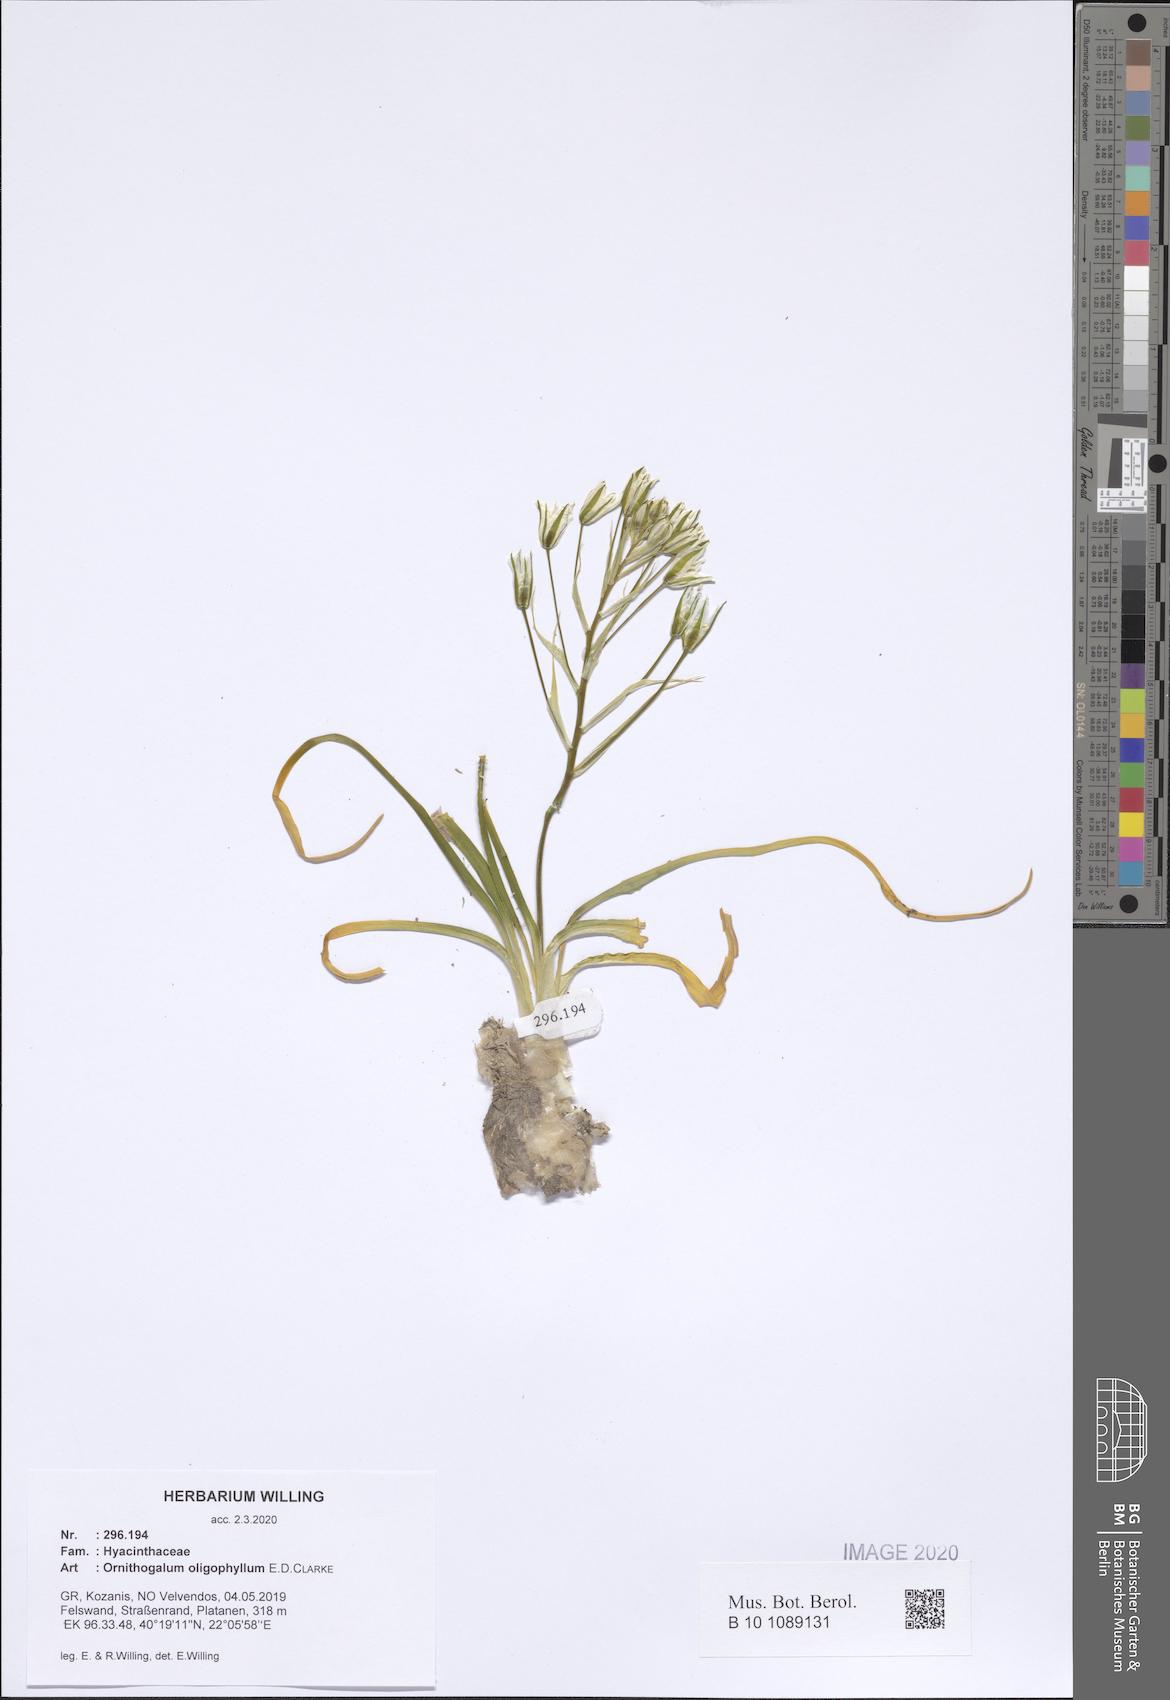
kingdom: Plantae
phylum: Tracheophyta
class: Liliopsida
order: Asparagales
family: Asparagaceae
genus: Ornithogalum
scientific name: Ornithogalum oligophyllum
